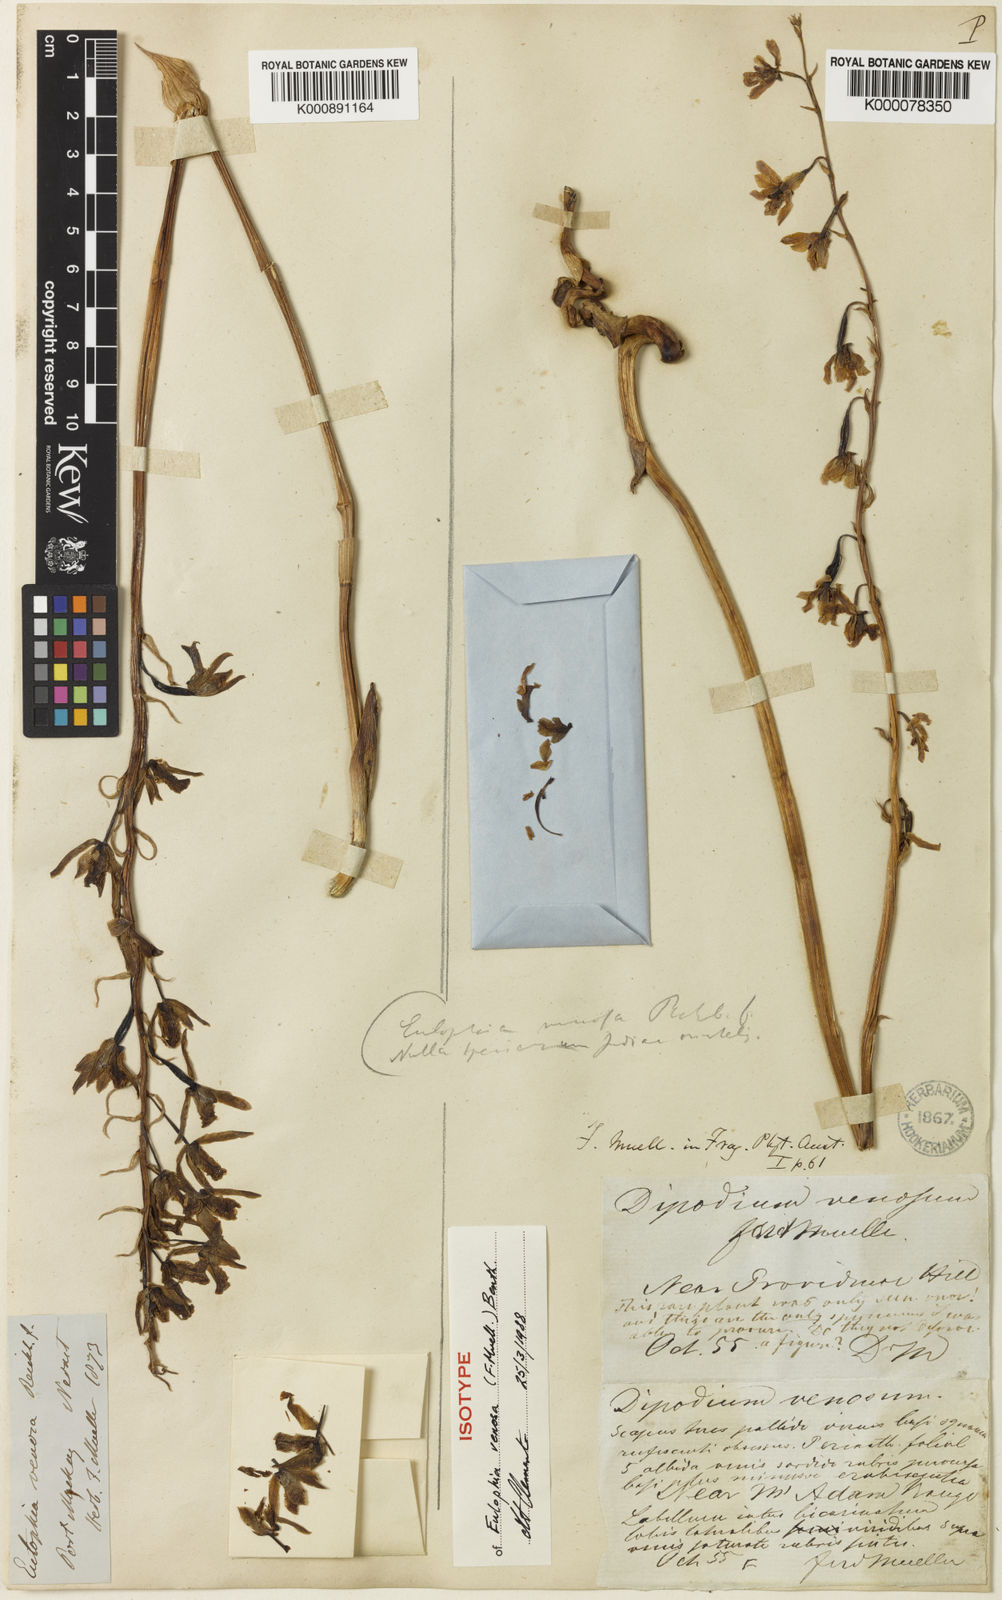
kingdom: Plantae
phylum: Tracheophyta
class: Liliopsida
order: Asparagales
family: Orchidaceae
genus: Eulophia
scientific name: Eulophia bicallosa
